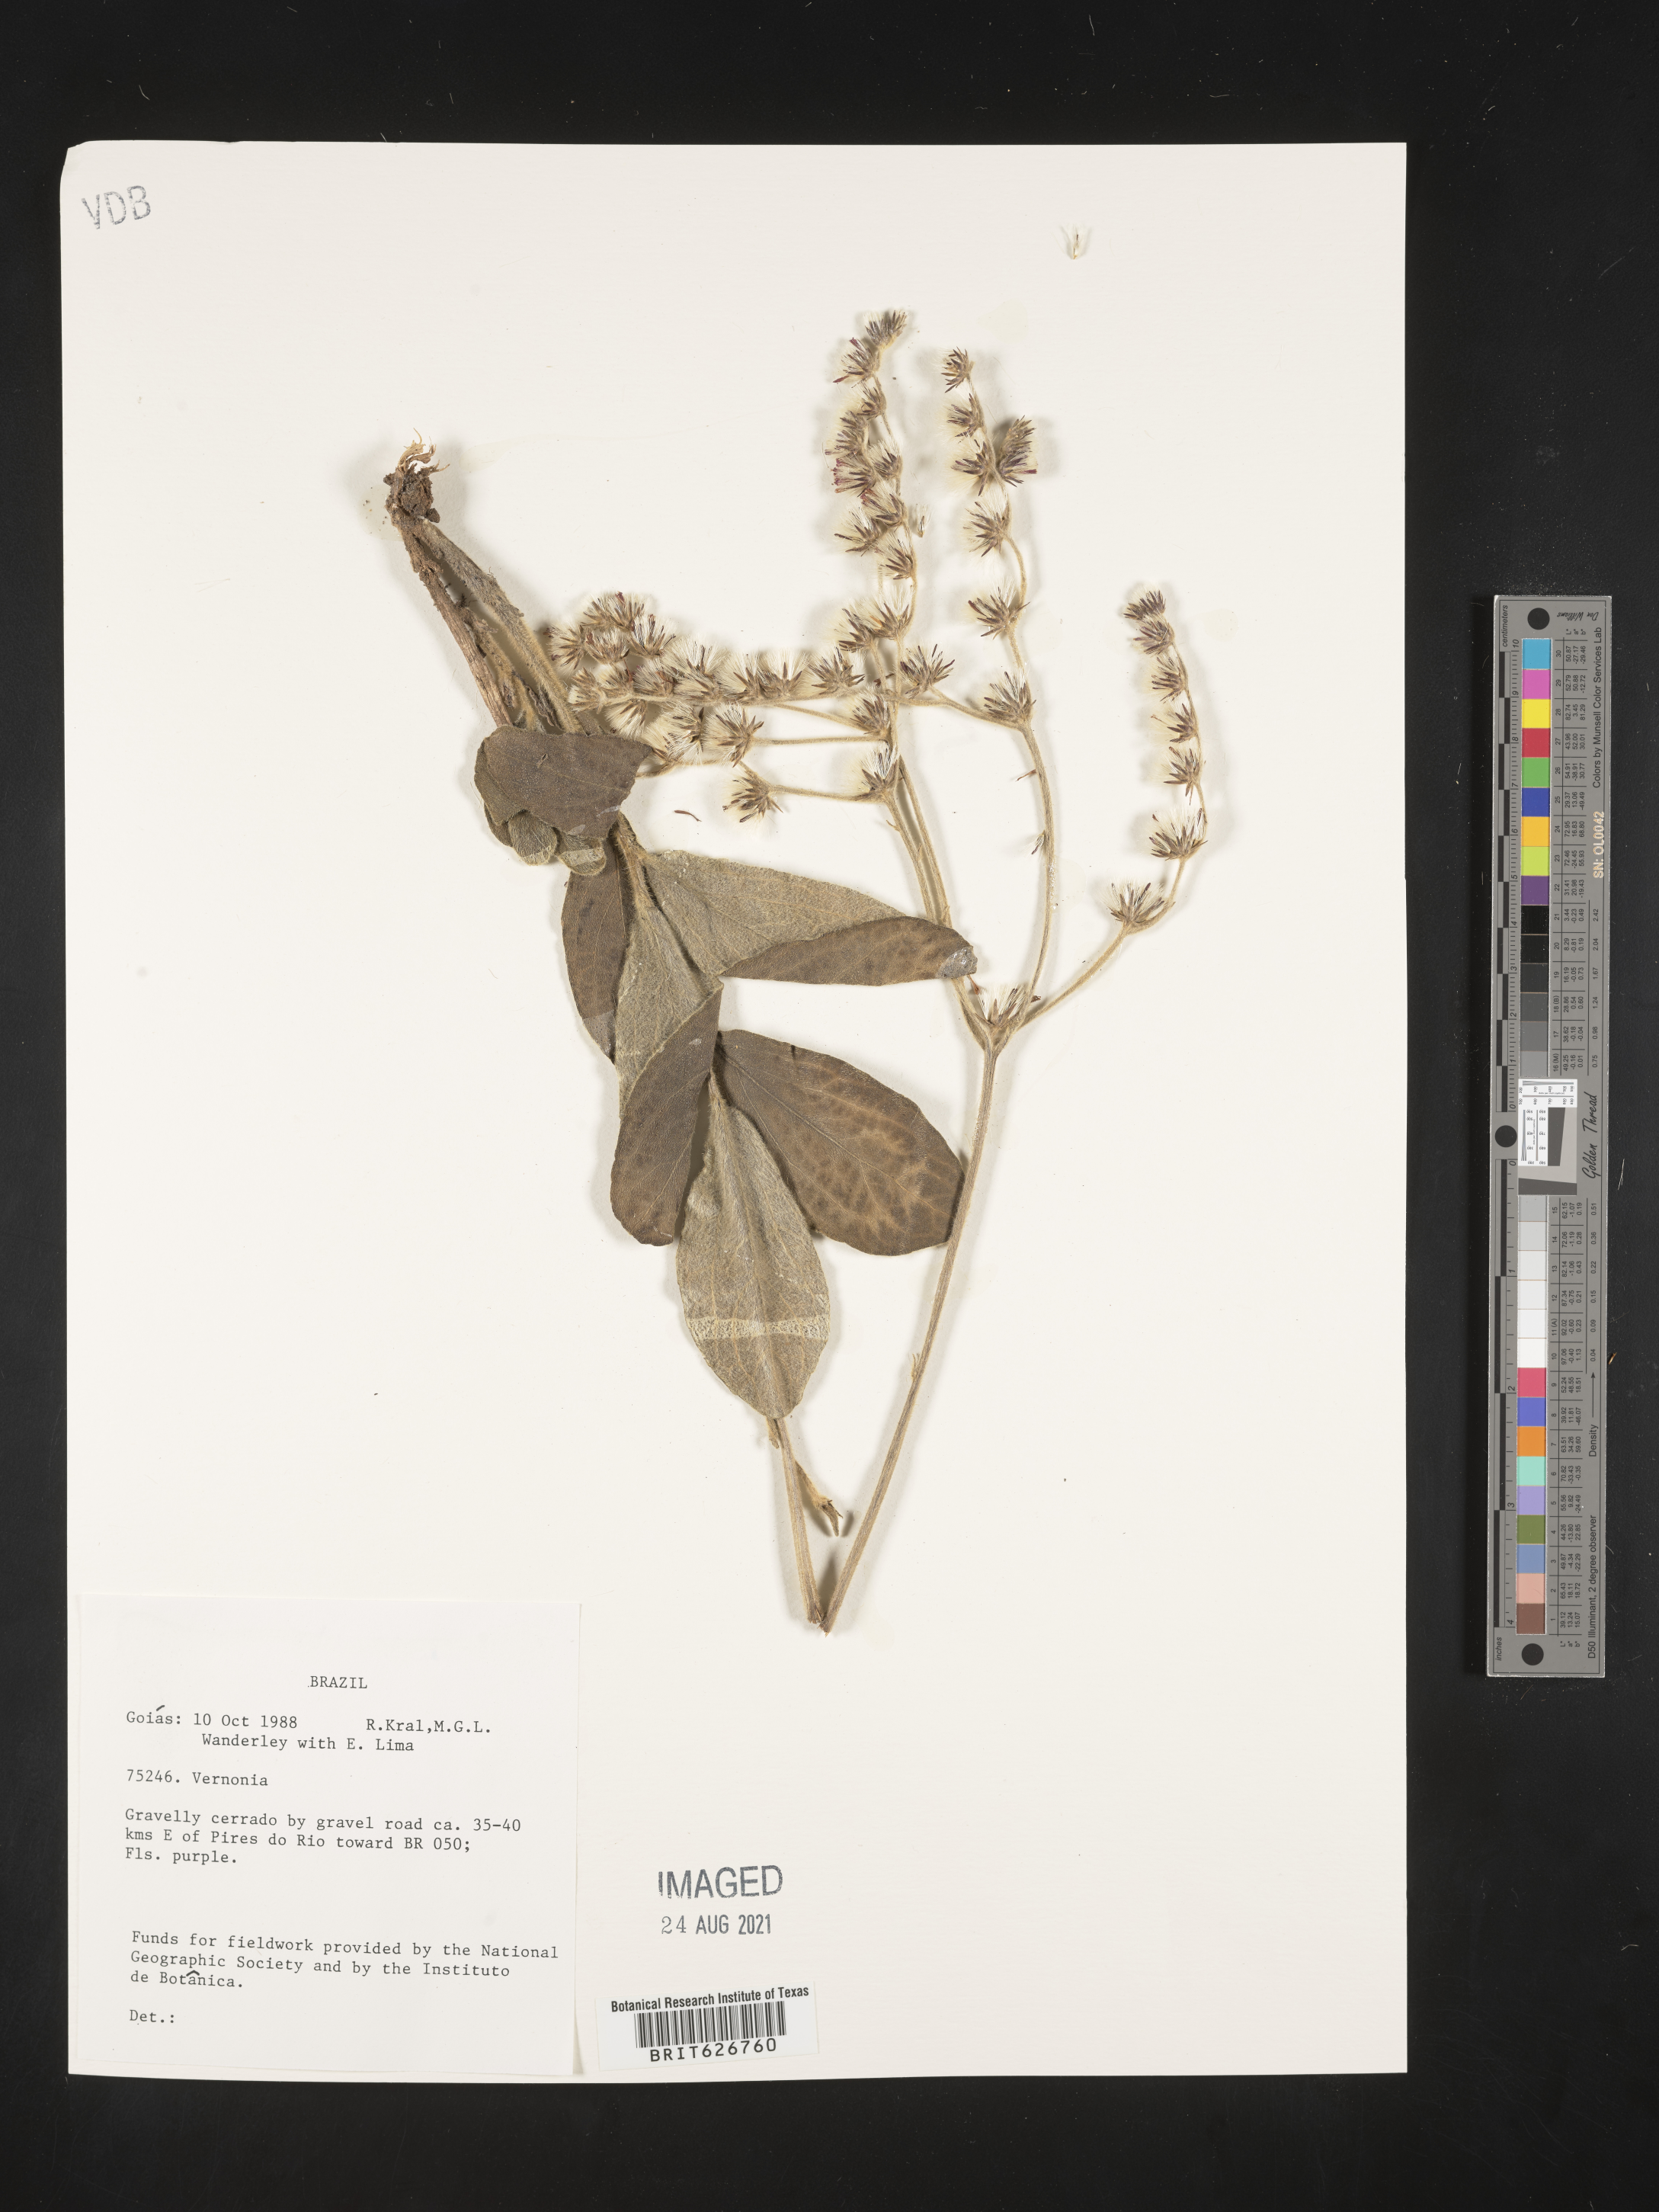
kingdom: Plantae
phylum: Tracheophyta
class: Magnoliopsida
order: Asterales
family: Asteraceae
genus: Vernonia
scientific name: Vernonia
